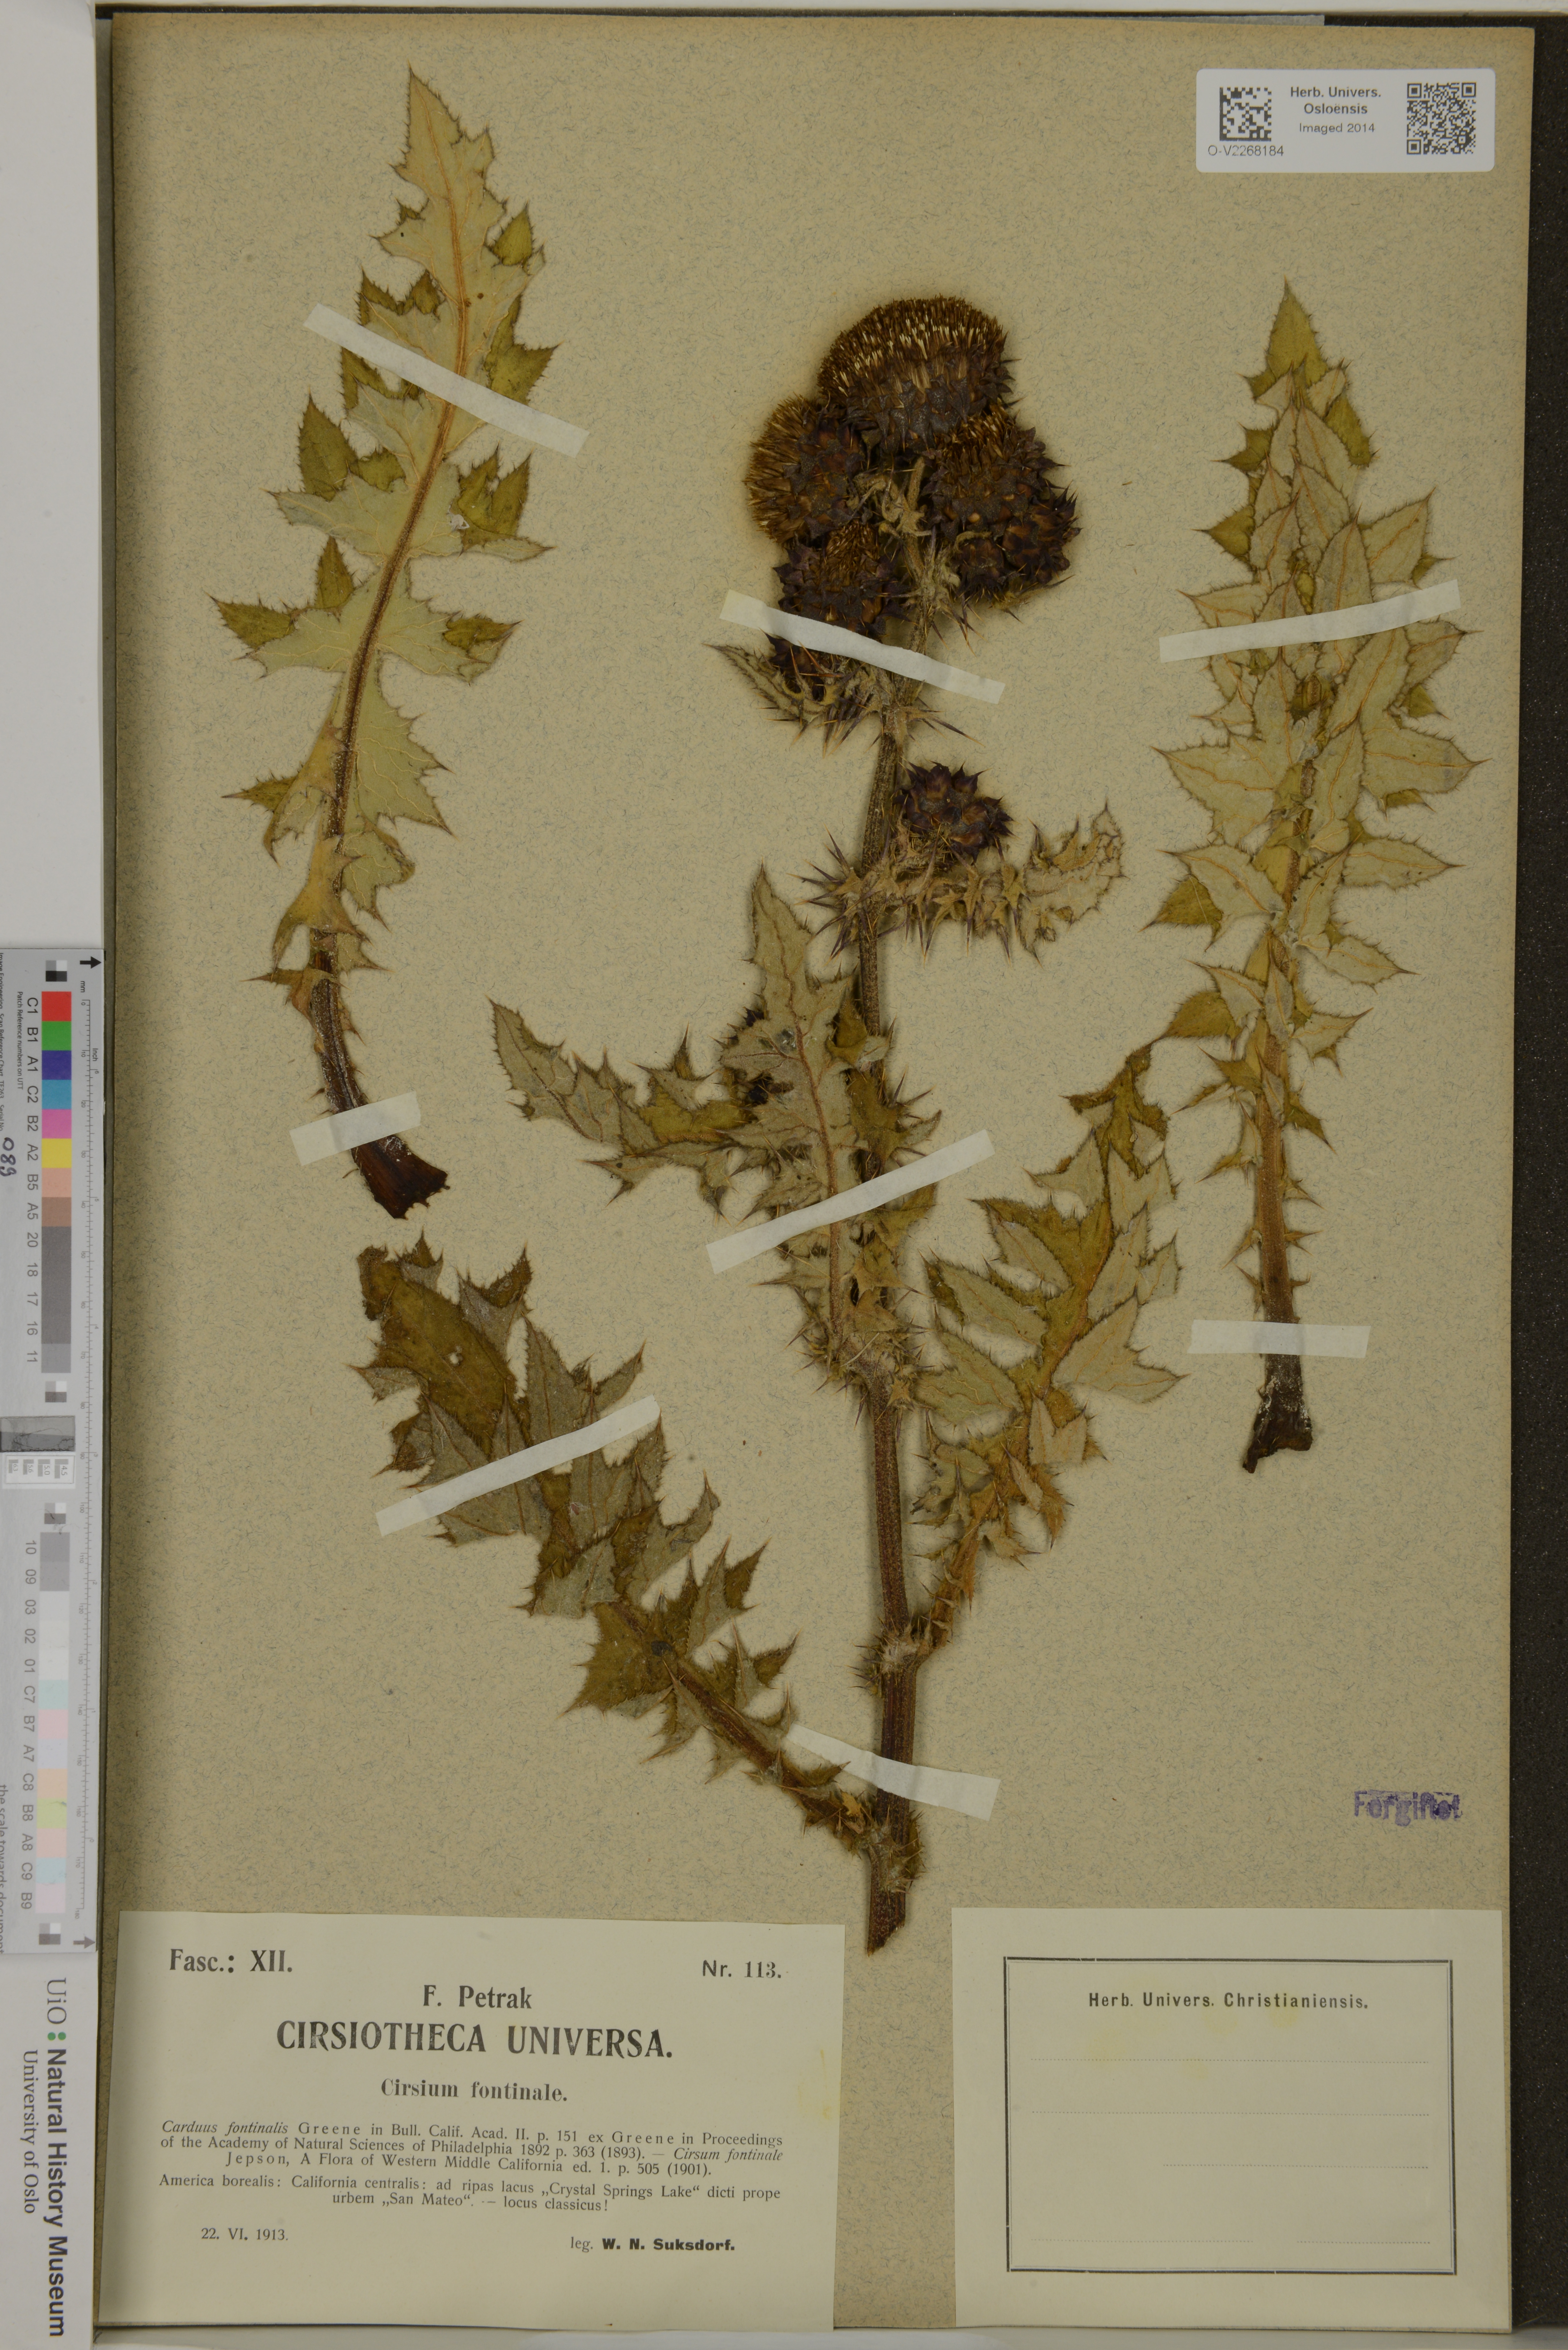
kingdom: Plantae
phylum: Tracheophyta
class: Magnoliopsida
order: Asterales
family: Asteraceae
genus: Cirsium
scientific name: Cirsium fontinale
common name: Fountain thistle
